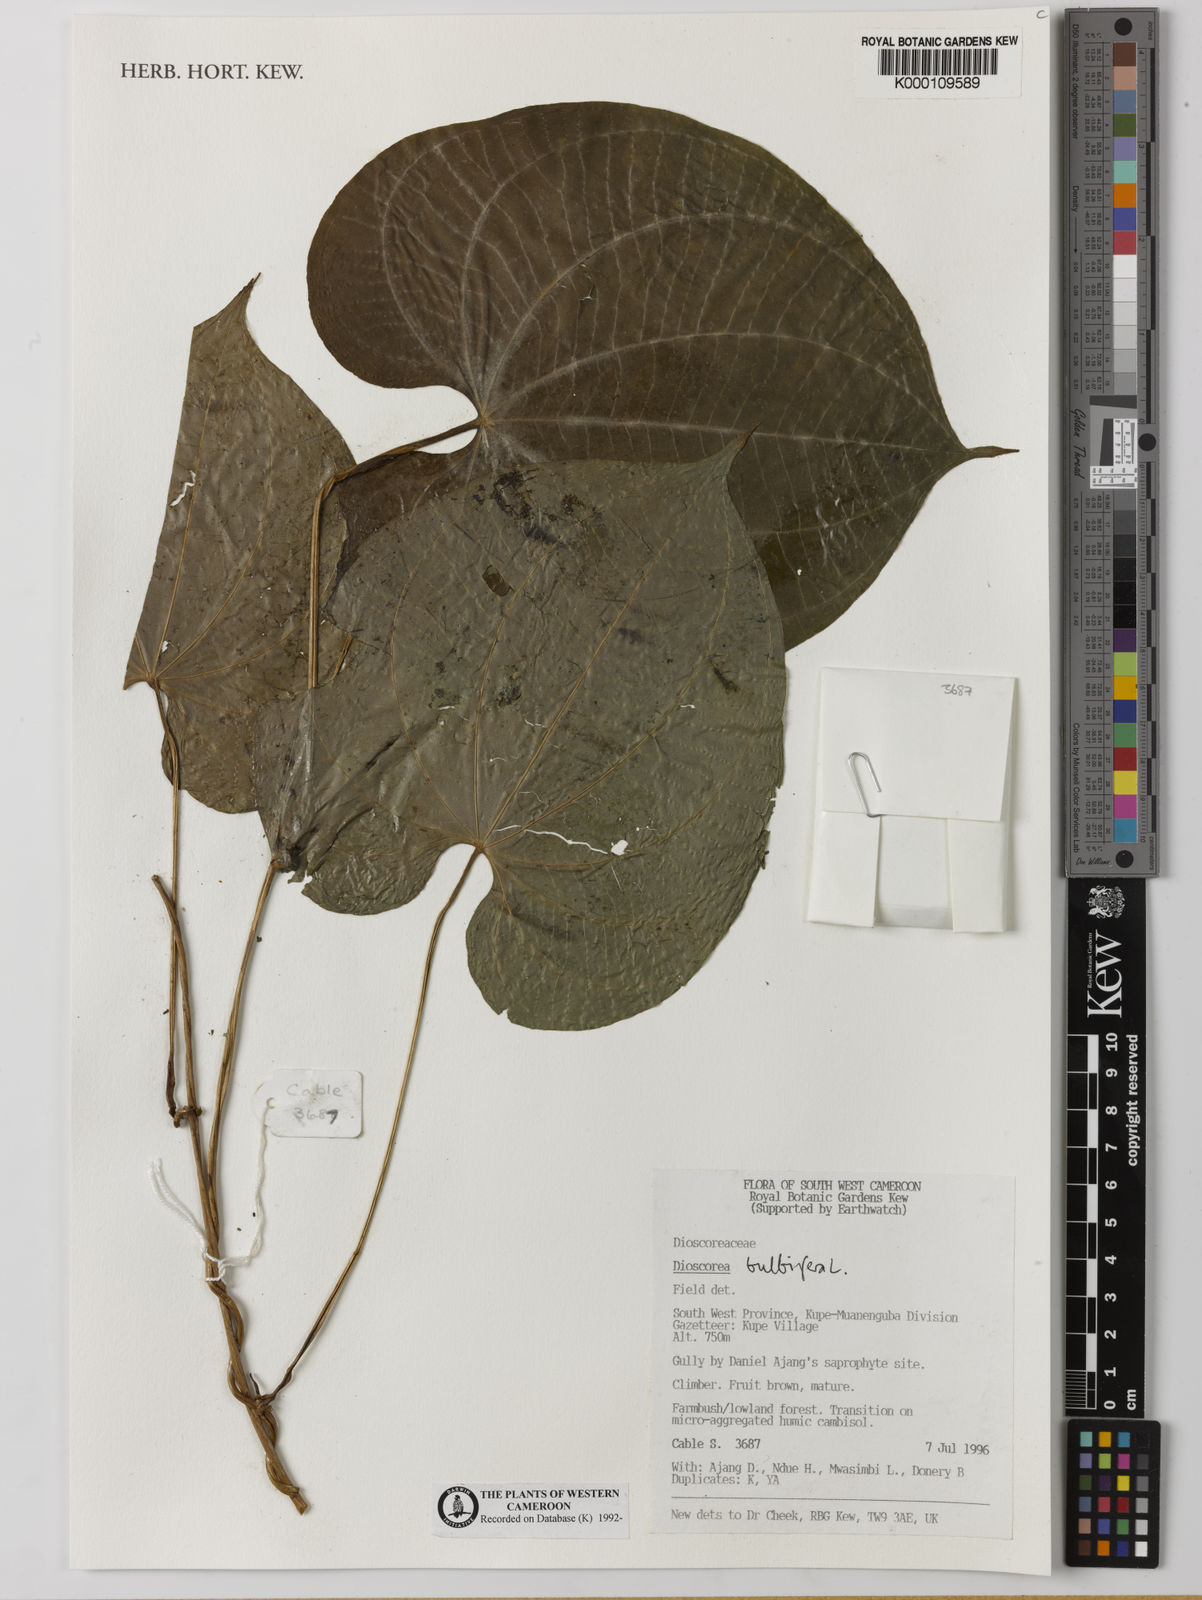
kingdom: Plantae
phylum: Tracheophyta
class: Liliopsida
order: Dioscoreales
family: Dioscoreaceae
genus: Dioscorea
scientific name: Dioscorea bulbifera
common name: Air yam
